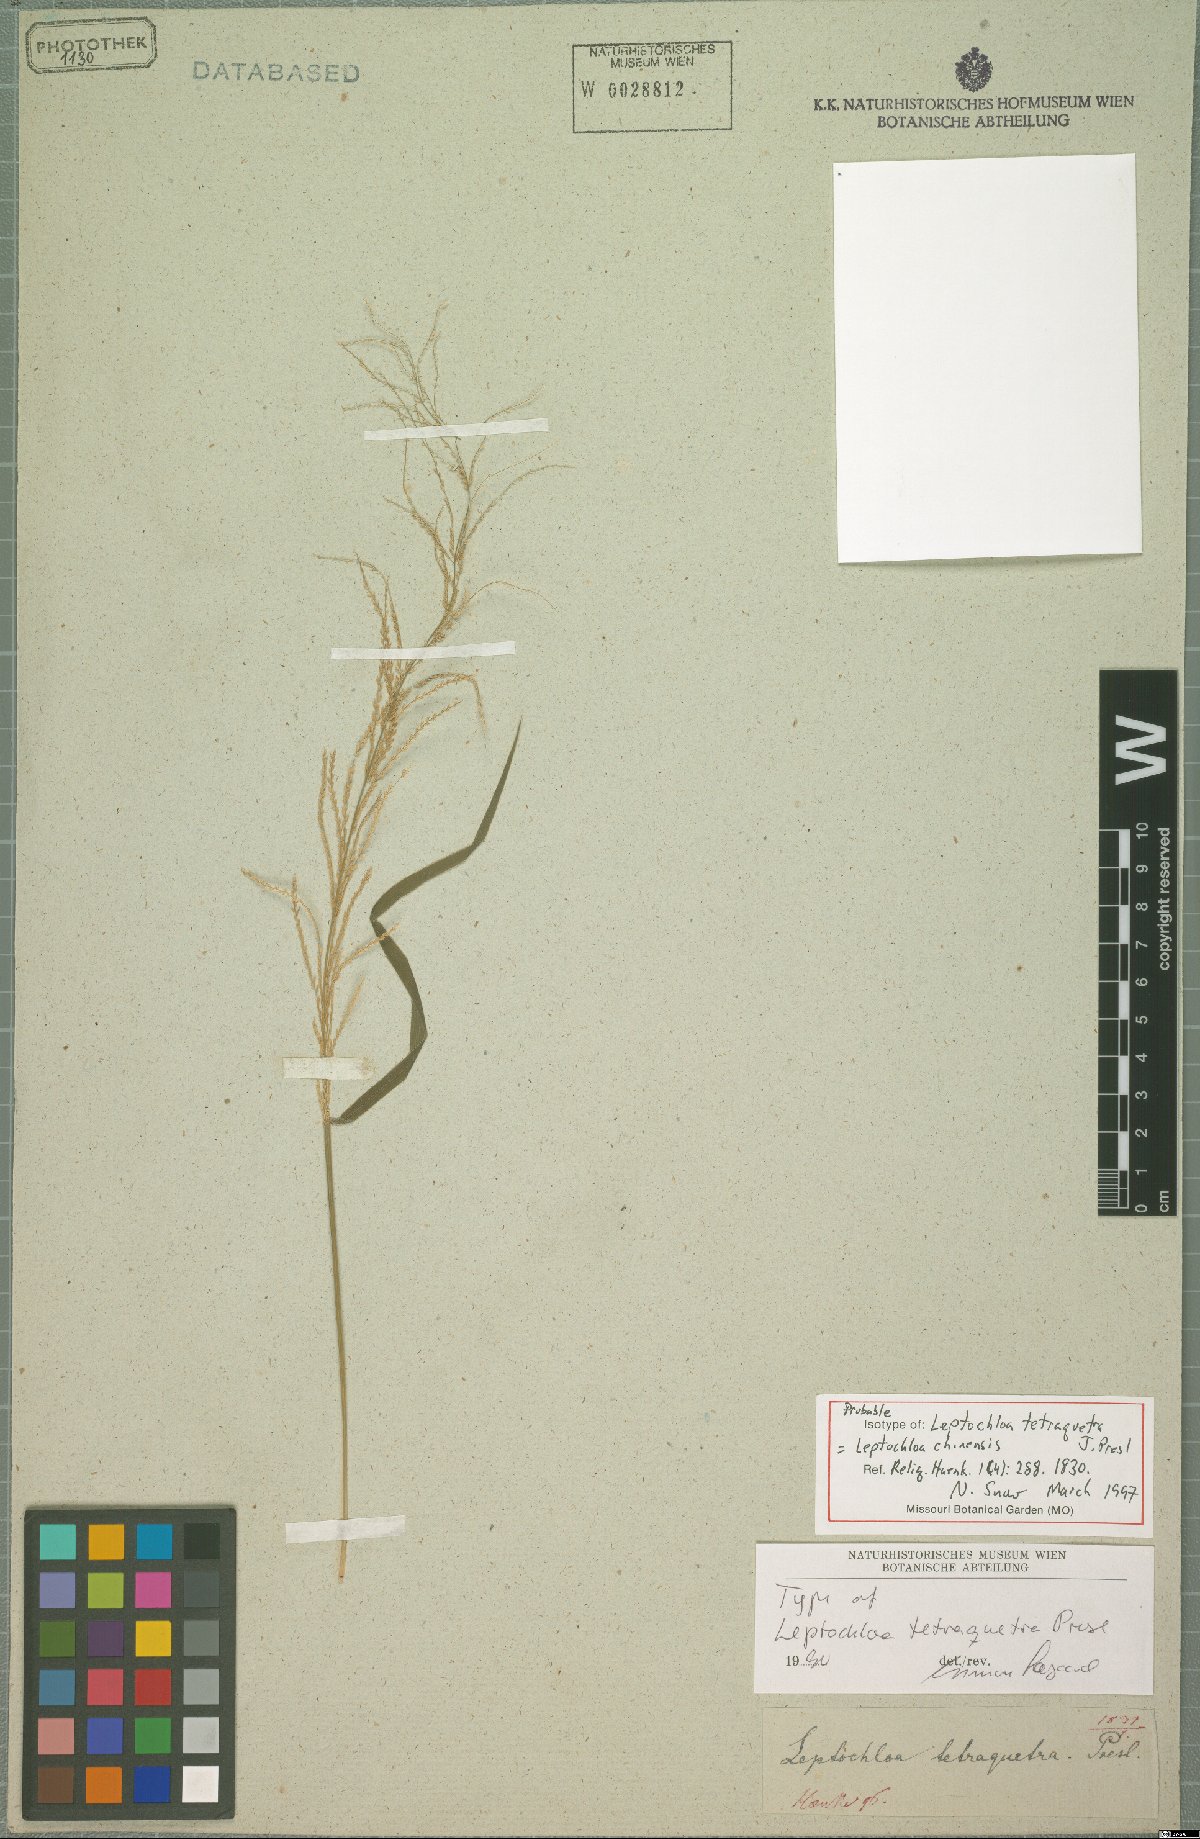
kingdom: Plantae
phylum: Tracheophyta
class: Liliopsida
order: Poales
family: Poaceae
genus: Leptochloa
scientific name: Leptochloa chinensis
